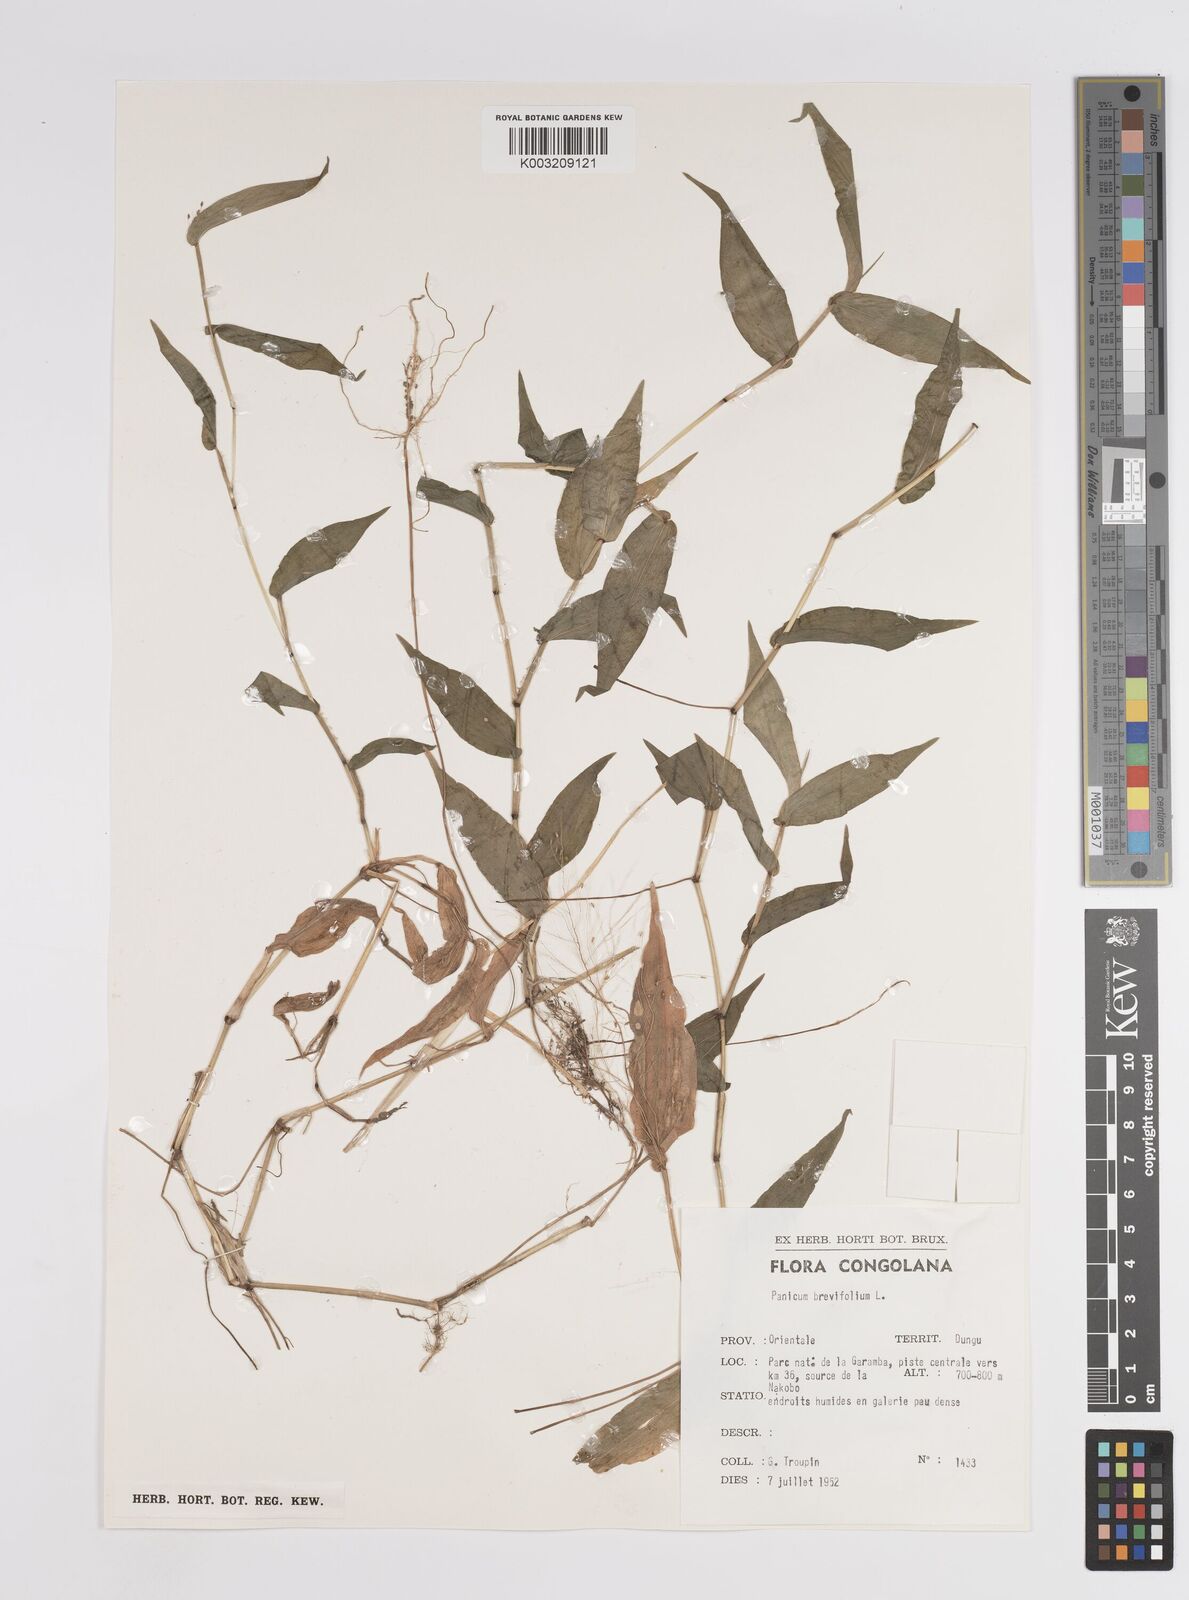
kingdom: Plantae
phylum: Tracheophyta
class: Liliopsida
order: Poales
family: Poaceae
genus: Panicum
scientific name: Panicum brevifolium
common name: Shortleaf panic grass
